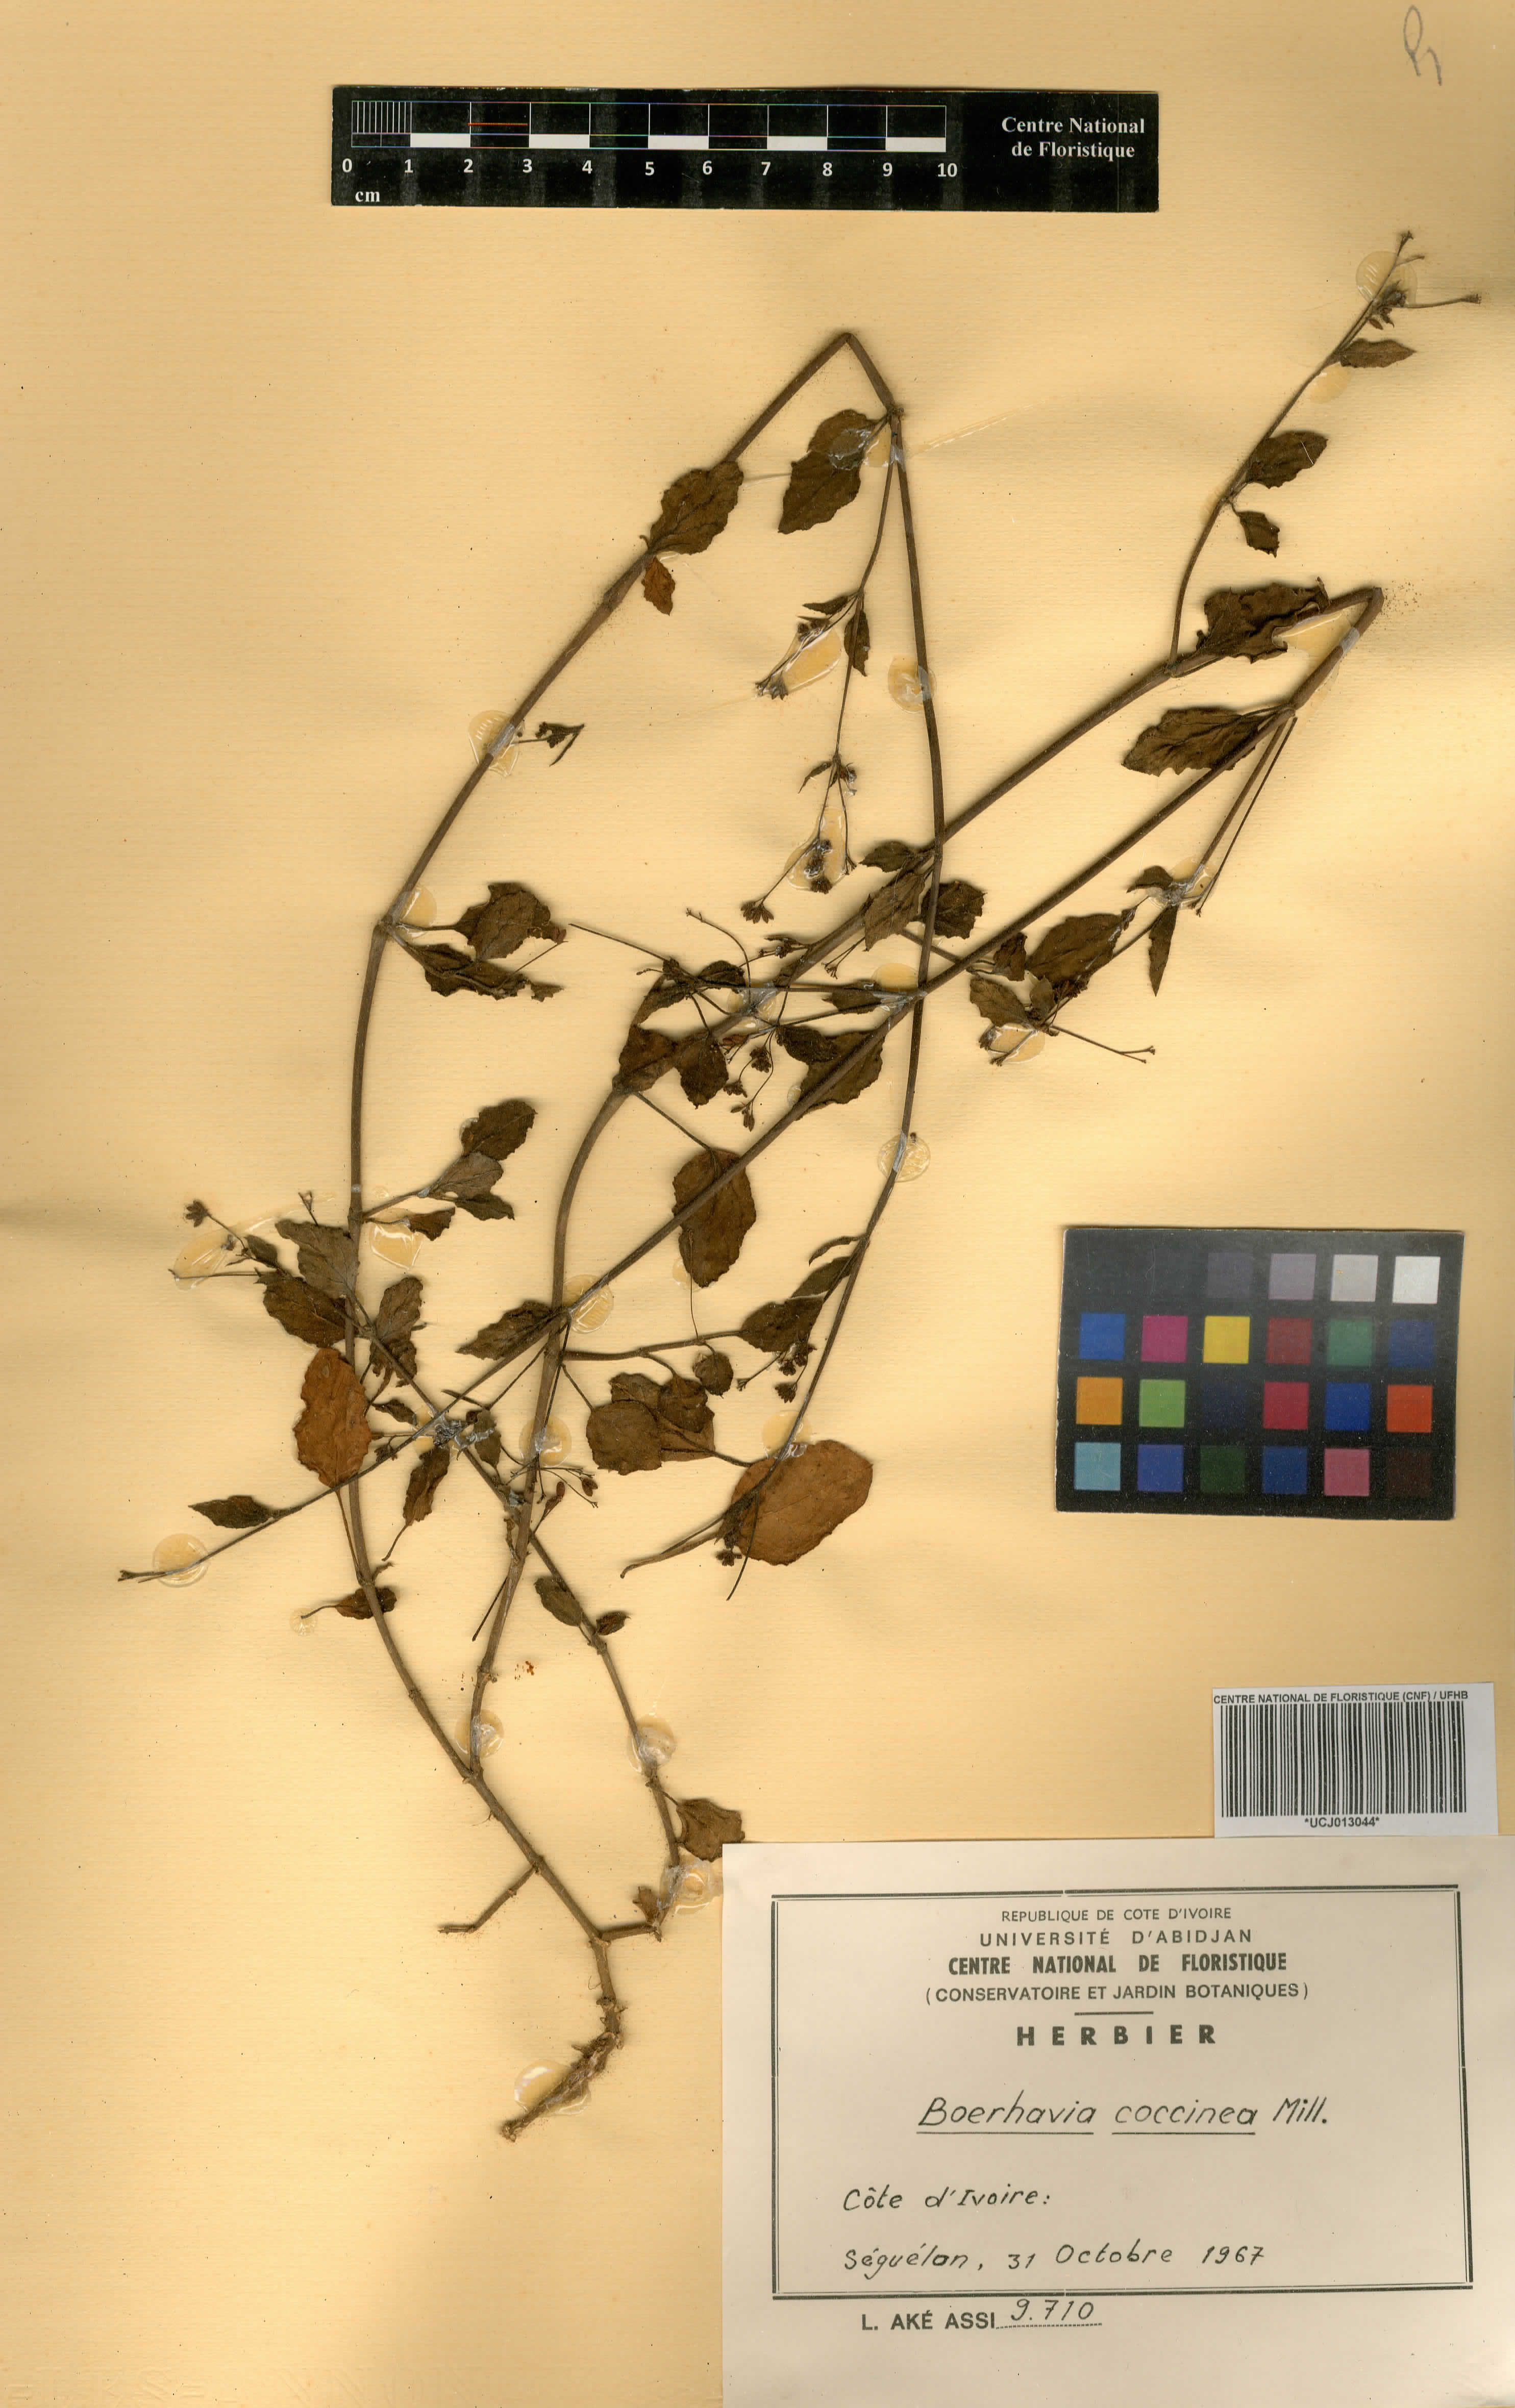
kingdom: Plantae
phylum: Tracheophyta
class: Magnoliopsida
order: Caryophyllales
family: Nyctaginaceae
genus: Boerhavia
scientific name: Boerhavia coccinea
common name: Scarlet spiderling
